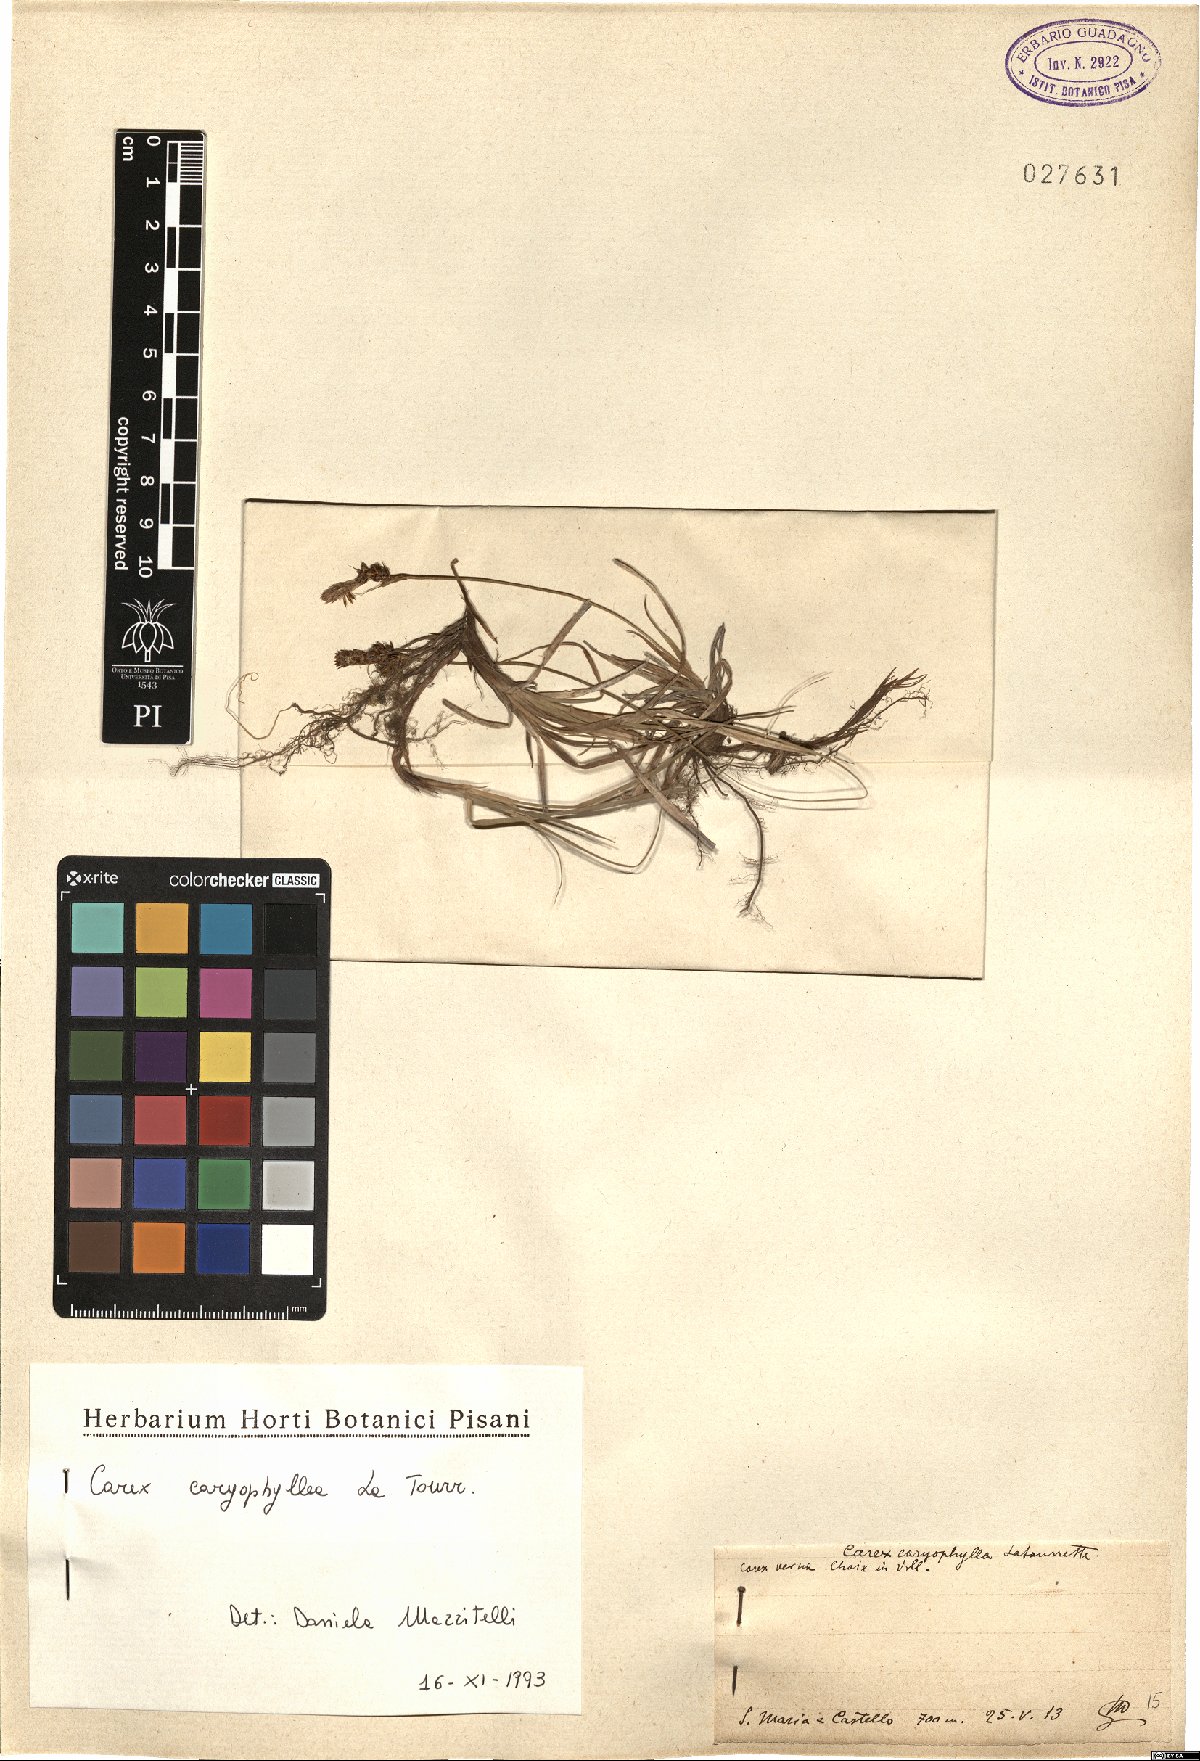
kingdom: Plantae
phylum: Tracheophyta
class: Liliopsida
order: Poales
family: Cyperaceae
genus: Carex
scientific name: Carex caryophyllea
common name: Spring sedge
